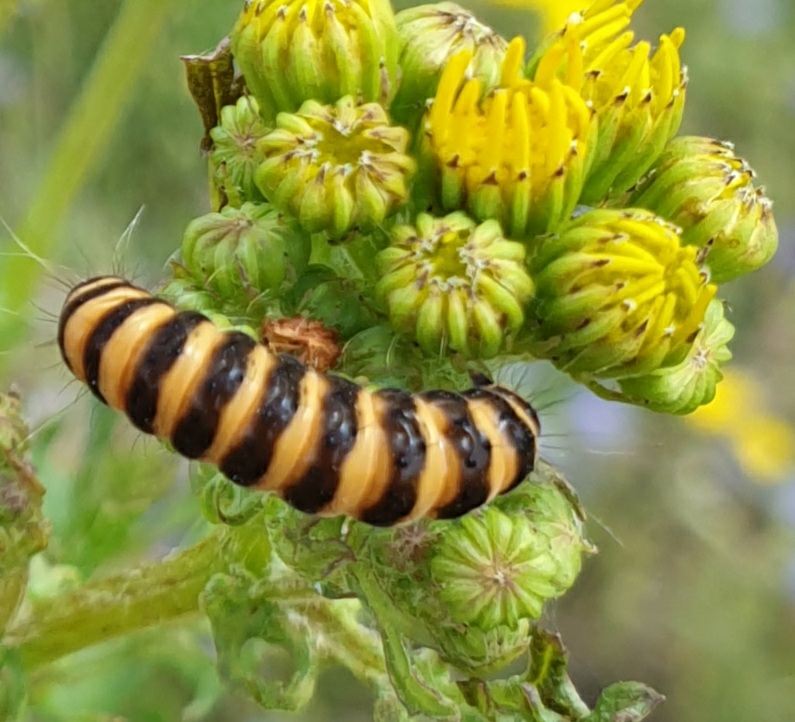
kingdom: Animalia
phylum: Arthropoda
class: Insecta
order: Lepidoptera
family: Erebidae
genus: Tyria
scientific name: Tyria jacobaeae
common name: Blodplet
